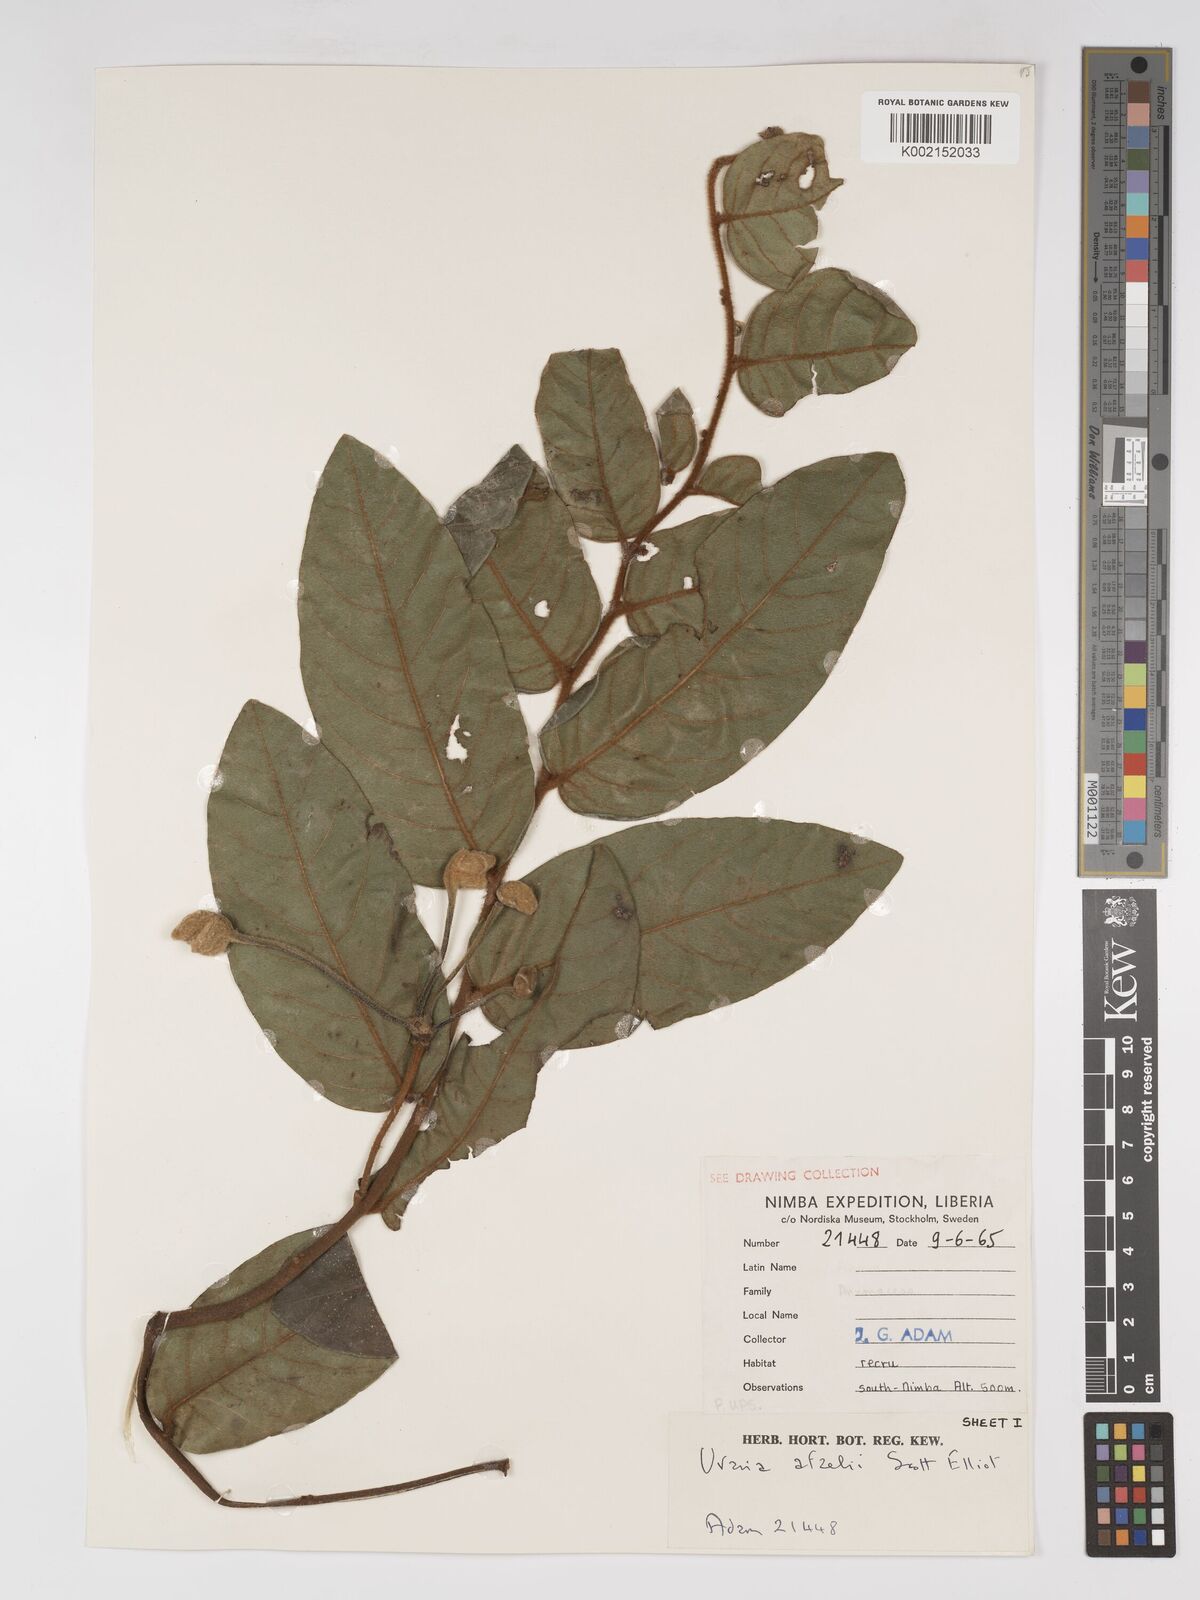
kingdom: Plantae
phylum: Tracheophyta
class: Magnoliopsida
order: Magnoliales
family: Annonaceae
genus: Uvaria
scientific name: Uvaria afzelii
